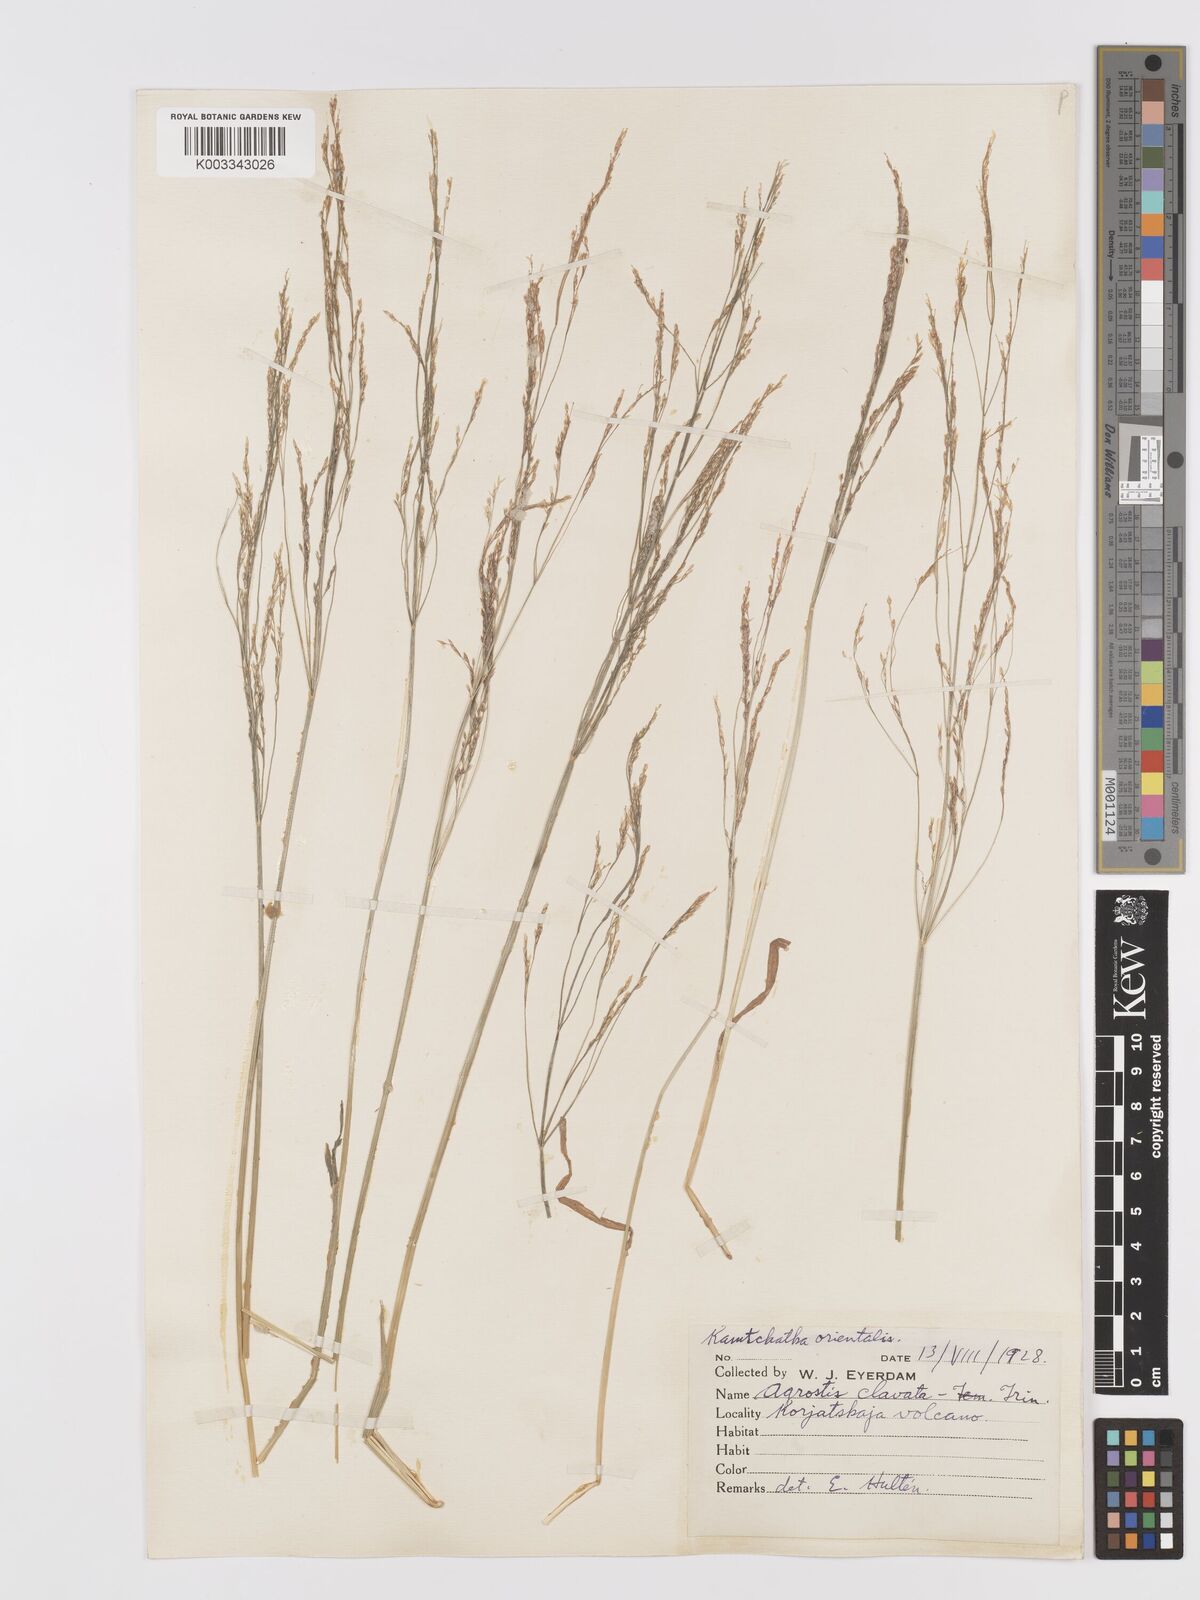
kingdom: Plantae
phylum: Tracheophyta
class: Liliopsida
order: Poales
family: Poaceae
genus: Agrostis
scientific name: Agrostis clavata
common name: Clavate bent
